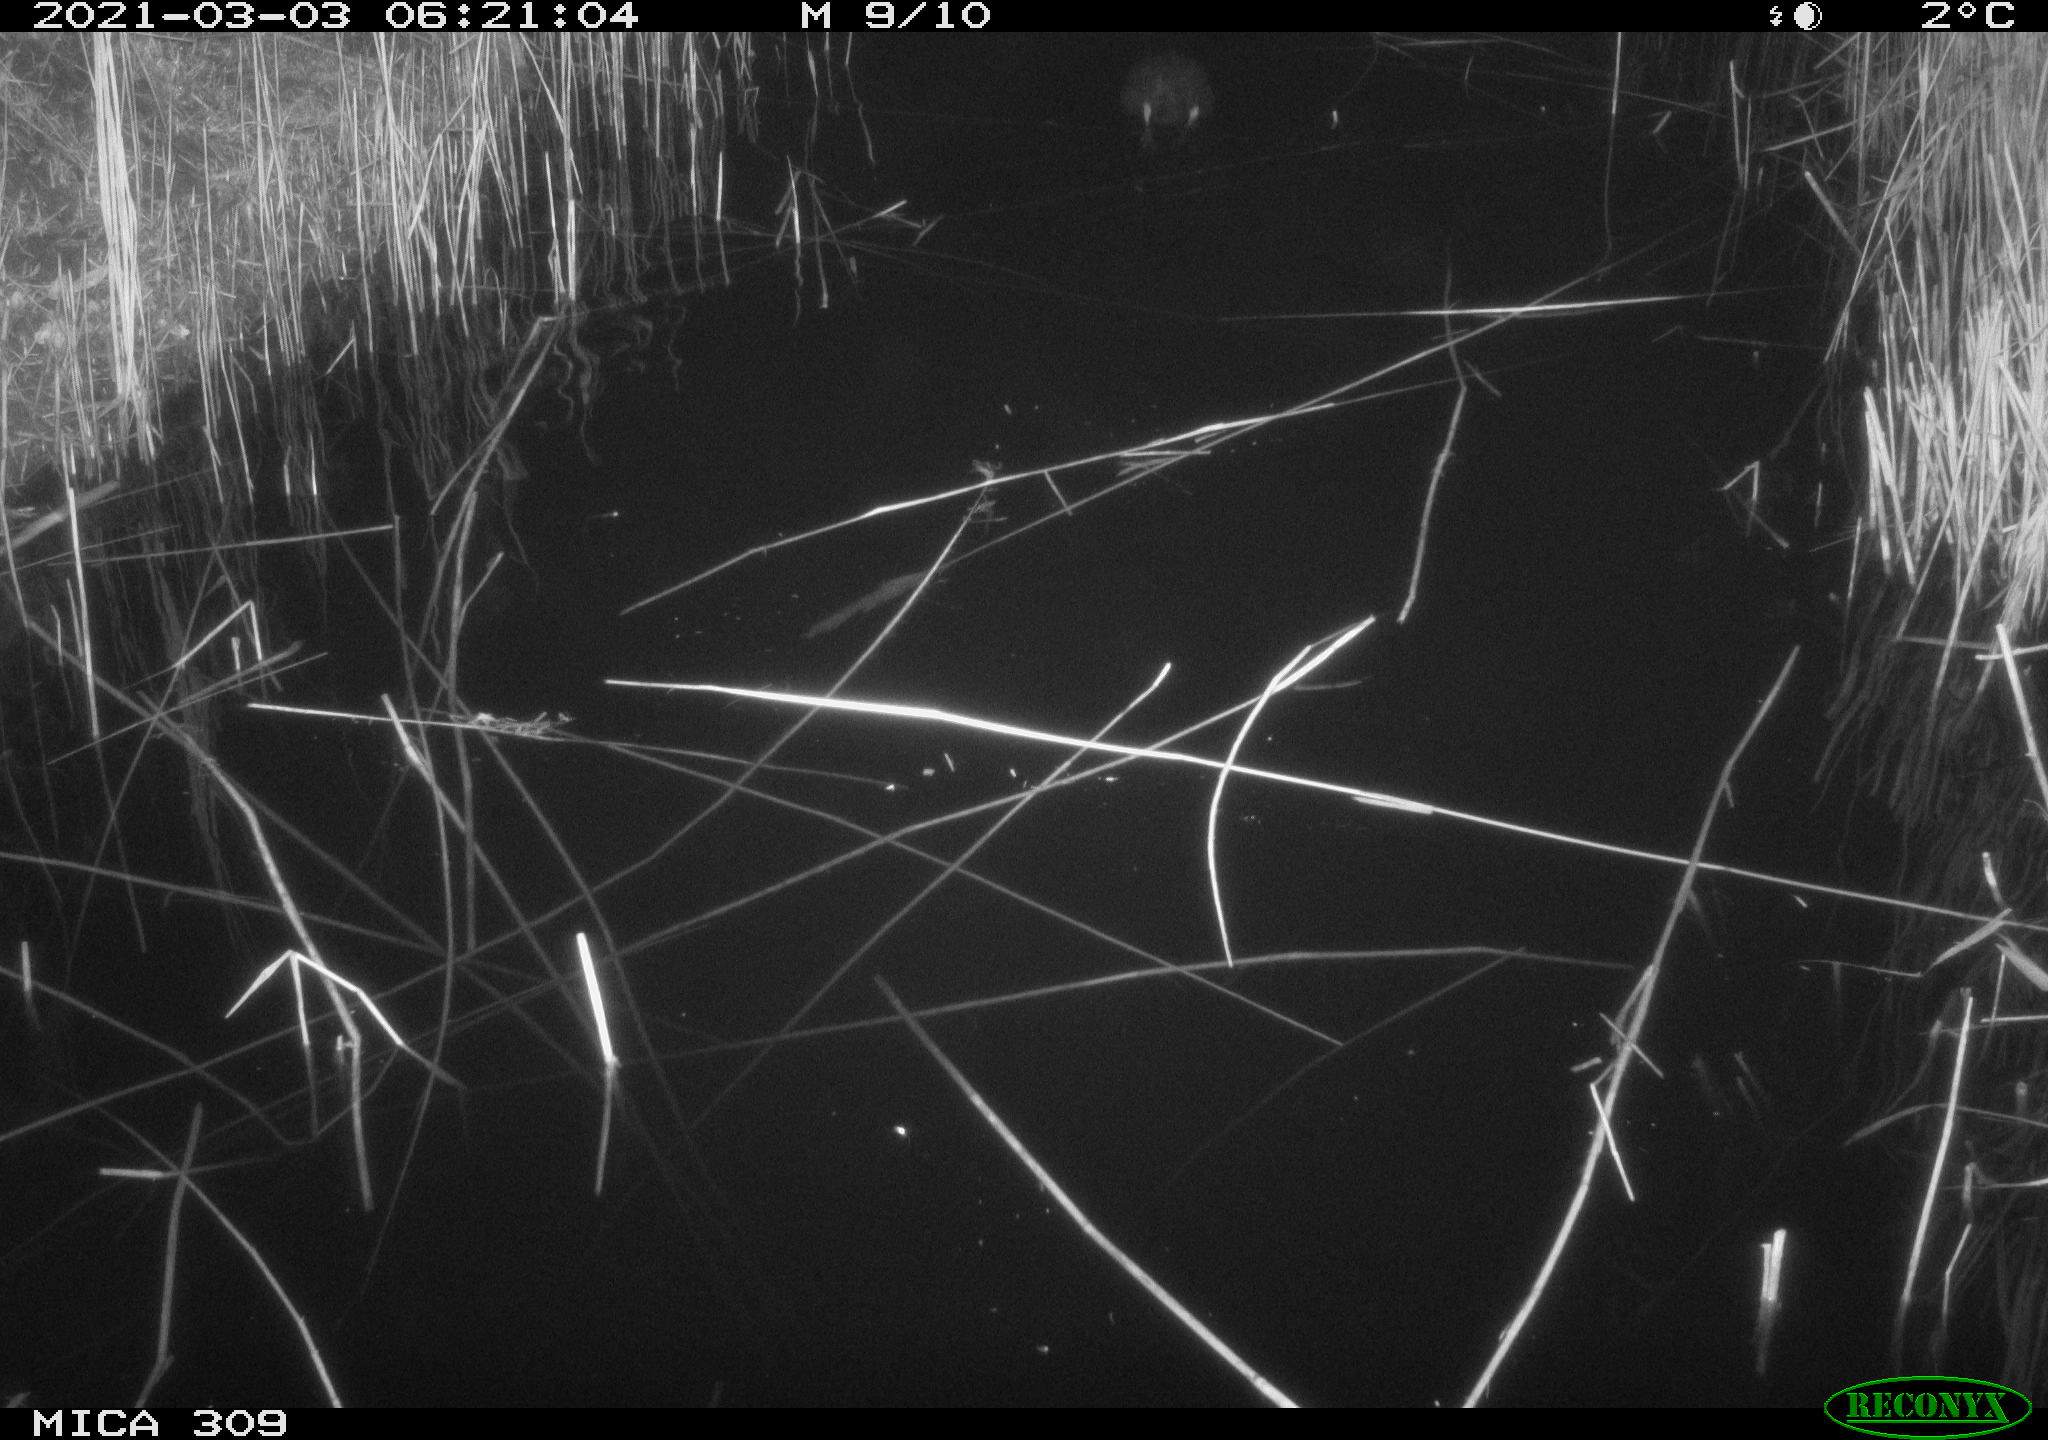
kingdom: Animalia
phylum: Chordata
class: Aves
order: Gruiformes
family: Rallidae
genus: Fulica
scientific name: Fulica atra
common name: Eurasian coot
